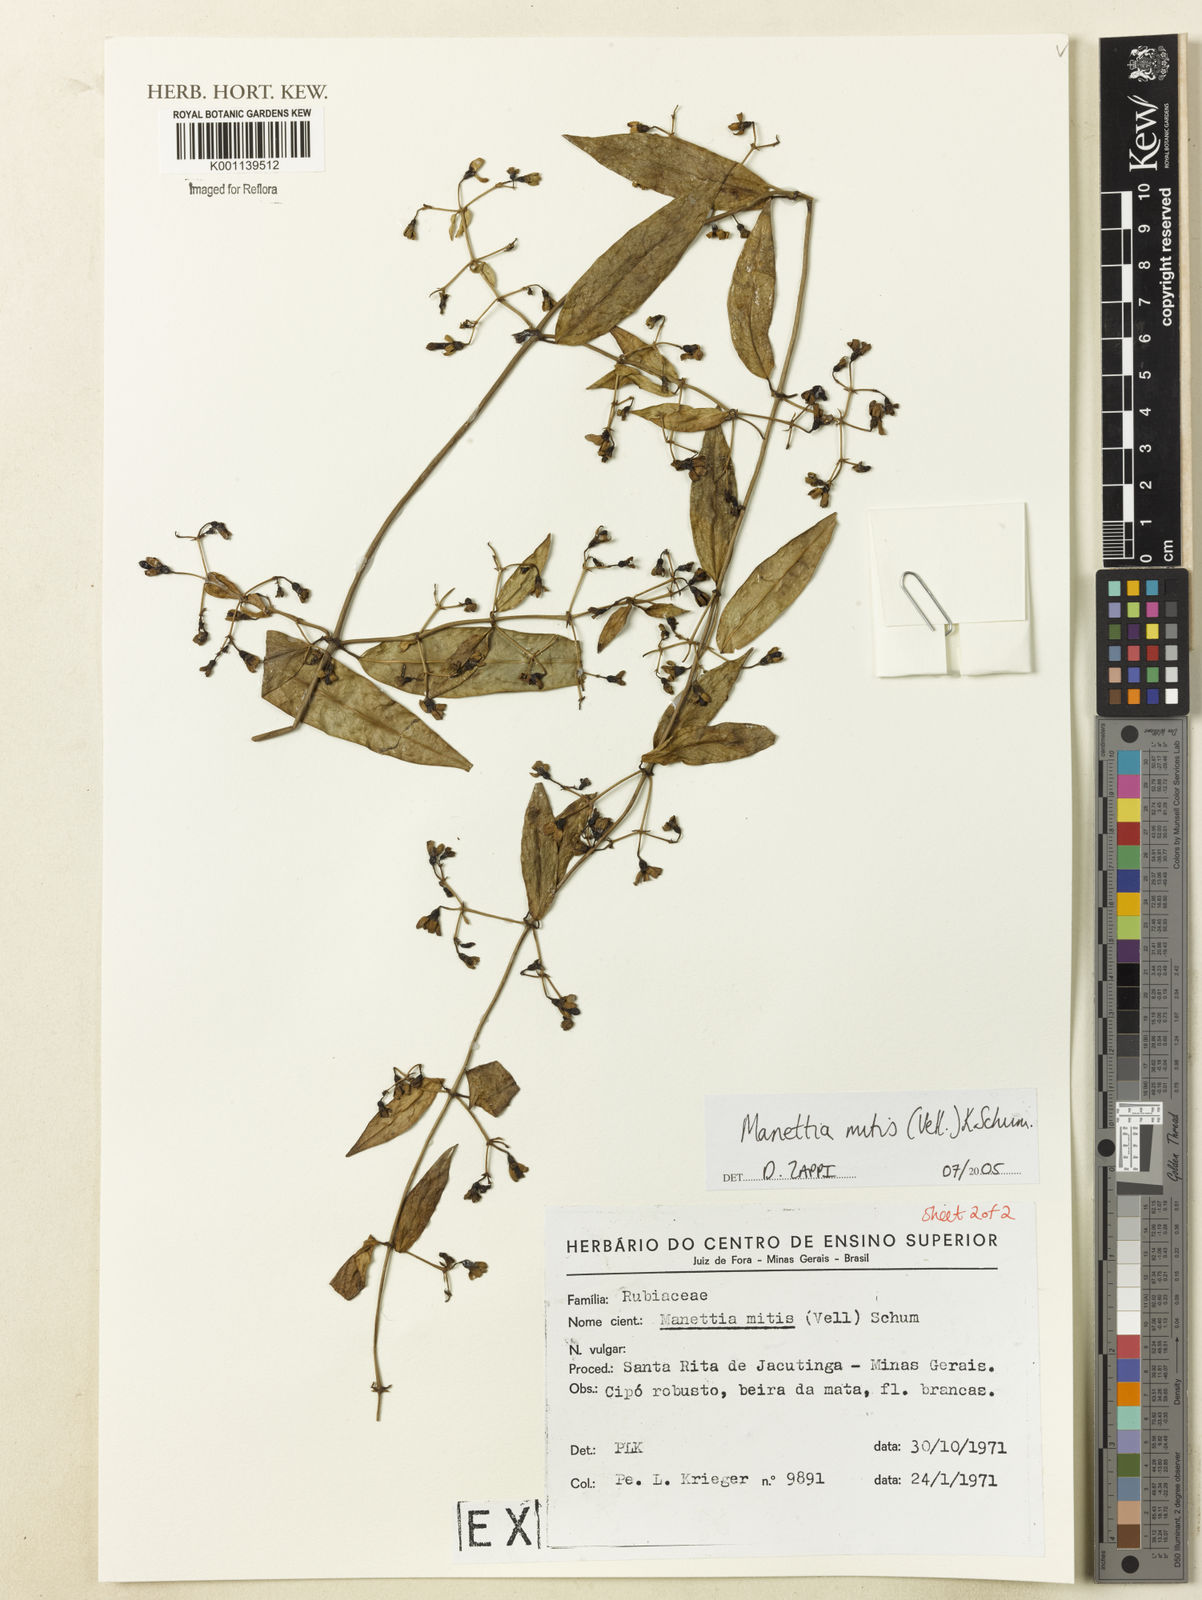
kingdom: Plantae
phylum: Tracheophyta
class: Magnoliopsida
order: Gentianales
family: Rubiaceae
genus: Manettia
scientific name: Manettia mitis
